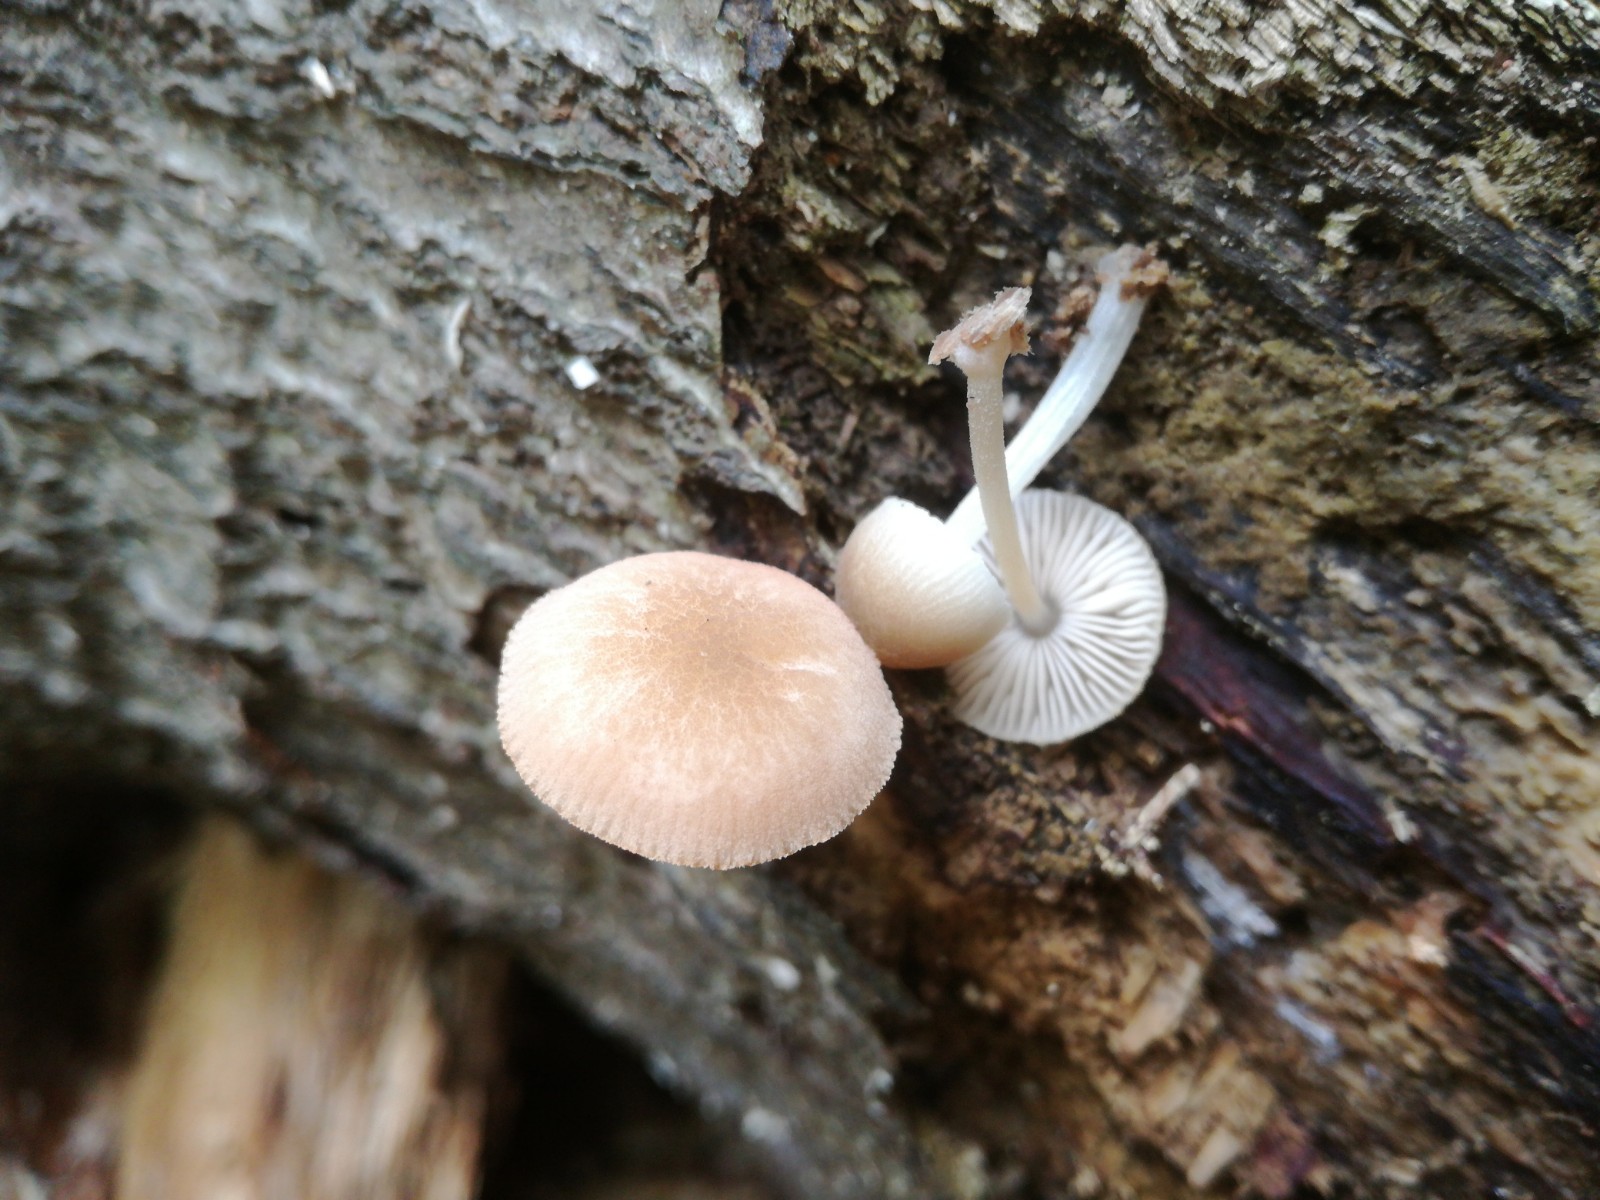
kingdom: Fungi
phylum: Basidiomycota
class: Agaricomycetes
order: Agaricales
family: Pluteaceae
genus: Pluteus
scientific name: Pluteus semibulbosus
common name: knoldet skærmhat
